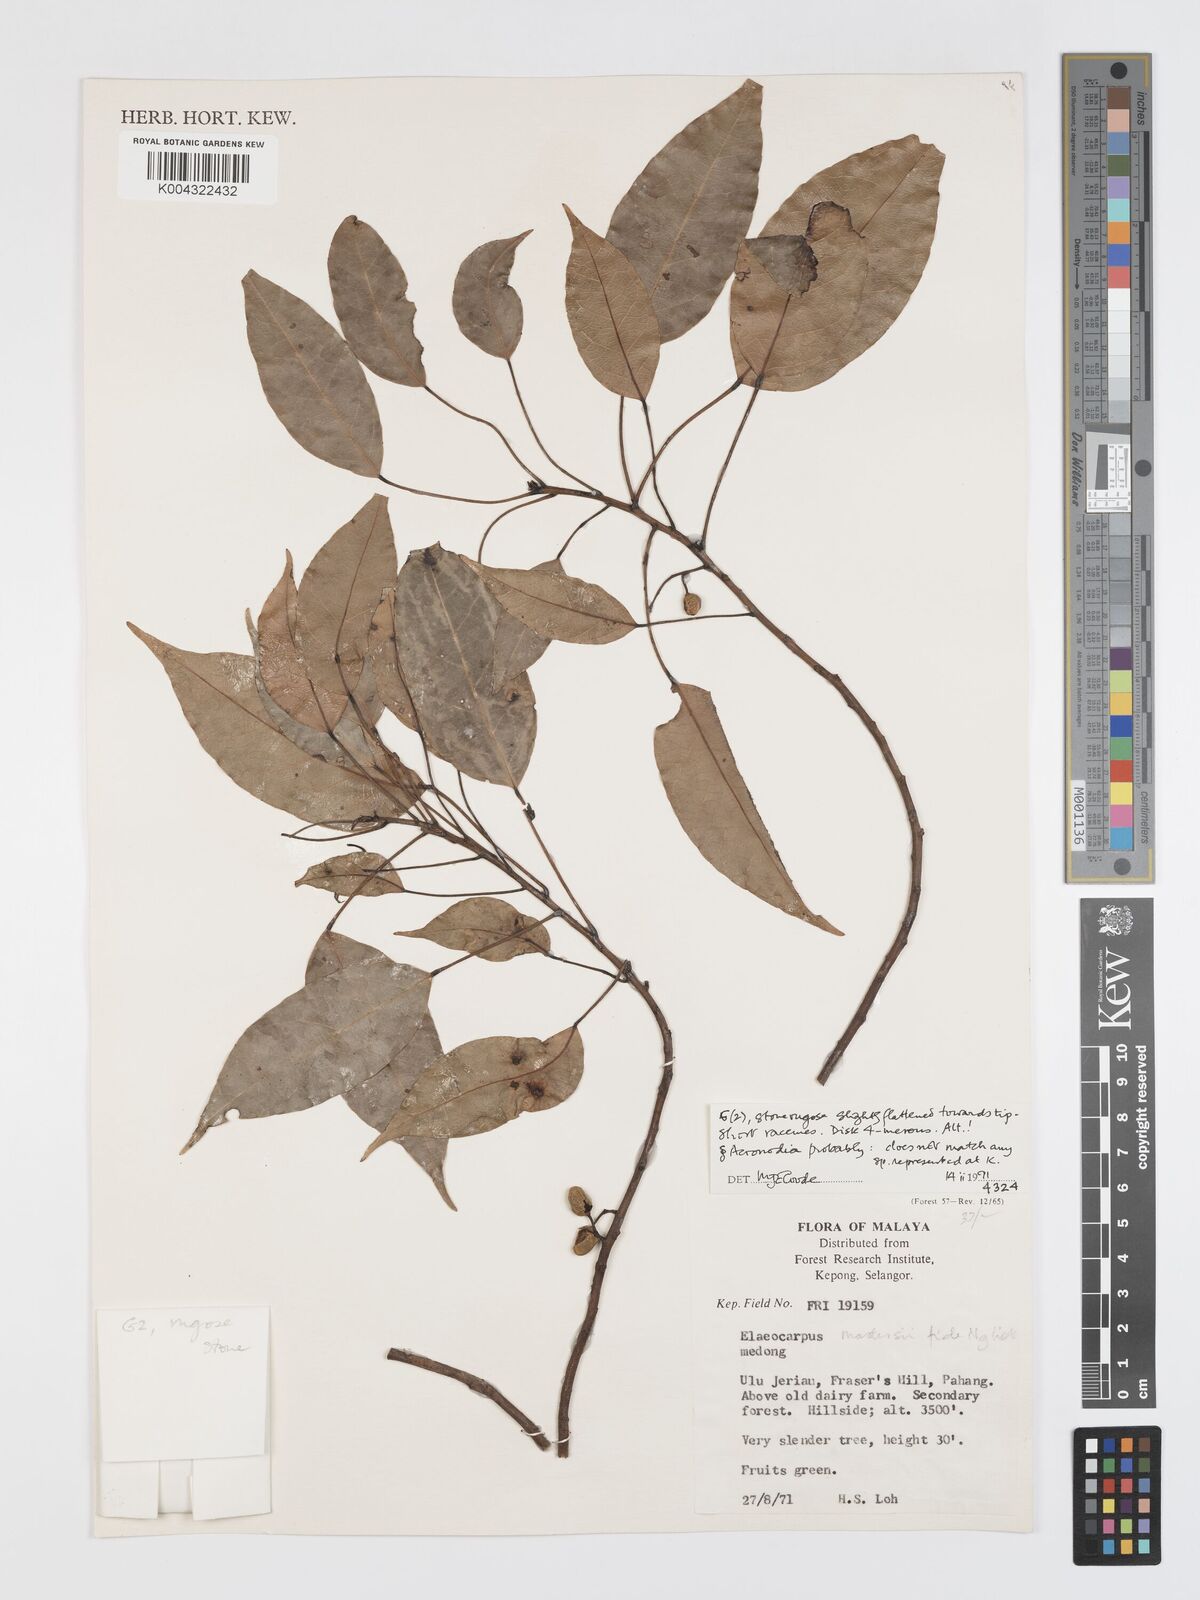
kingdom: Plantae
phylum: Tracheophyta
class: Magnoliopsida
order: Oxalidales
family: Elaeocarpaceae
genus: Elaeocarpus
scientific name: Elaeocarpus aristatus
